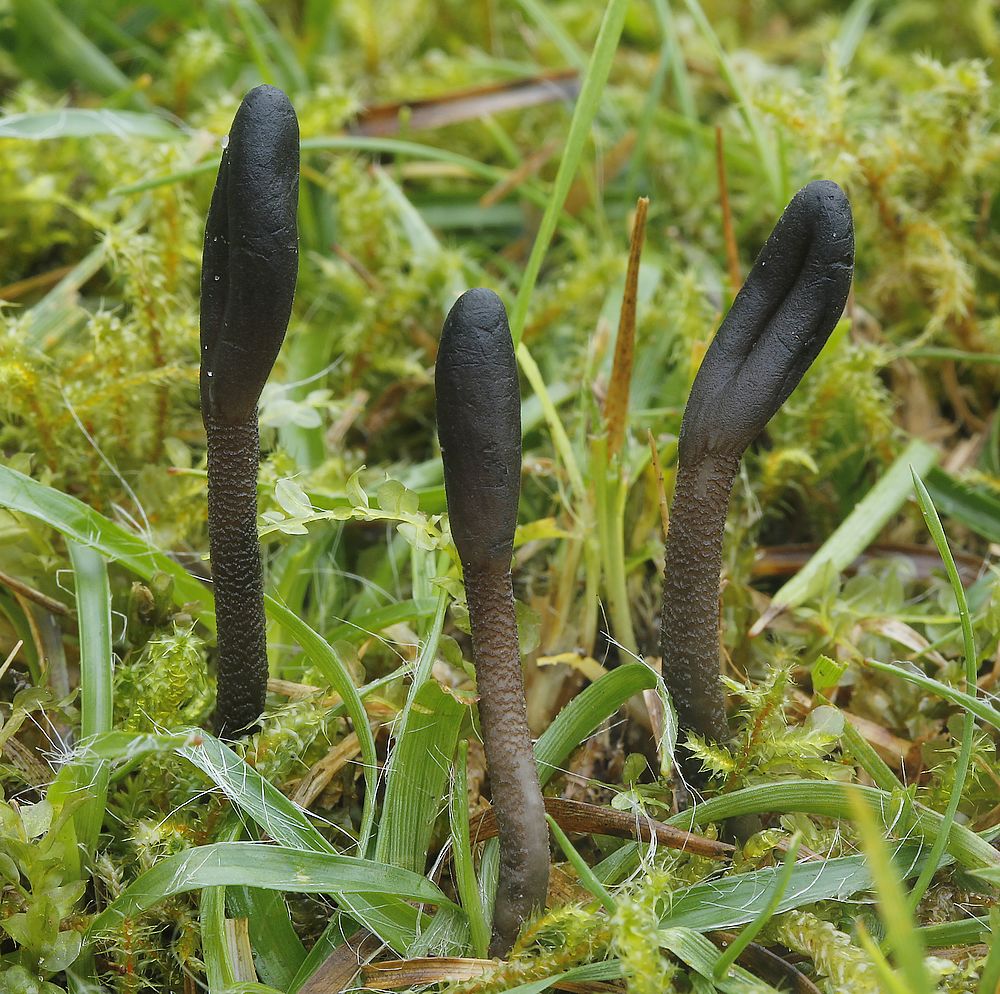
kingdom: Fungi
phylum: Ascomycota
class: Geoglossomycetes
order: Geoglossales
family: Geoglossaceae
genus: Geoglossum
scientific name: Geoglossum fallax
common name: småskællet jordtunge
